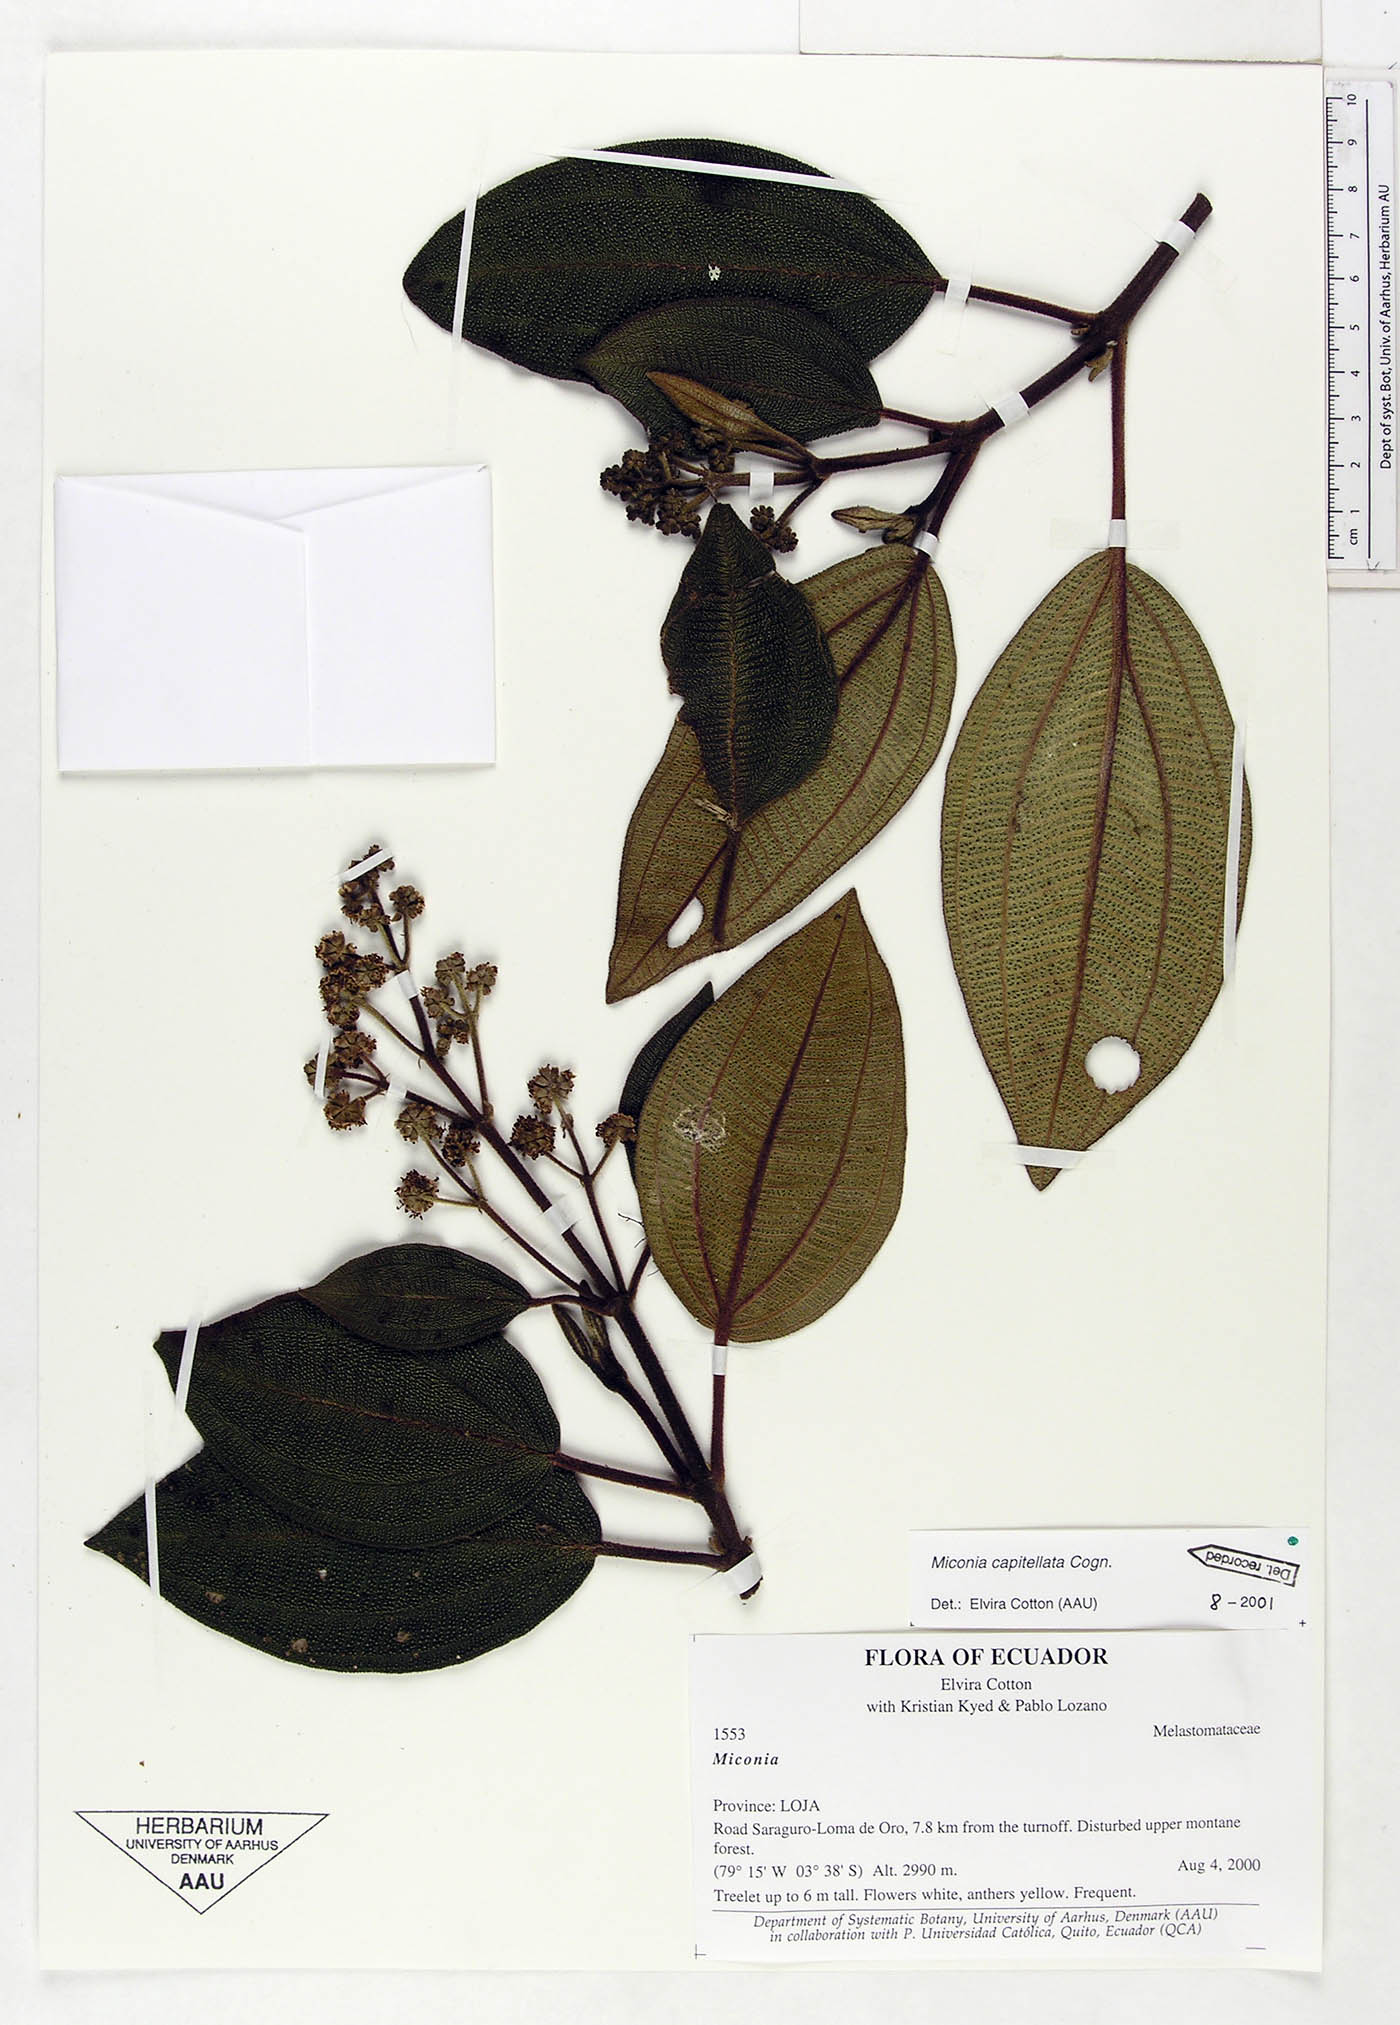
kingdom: Plantae
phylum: Tracheophyta
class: Magnoliopsida
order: Myrtales
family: Melastomataceae
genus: Miconia
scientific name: Miconia capitellata
